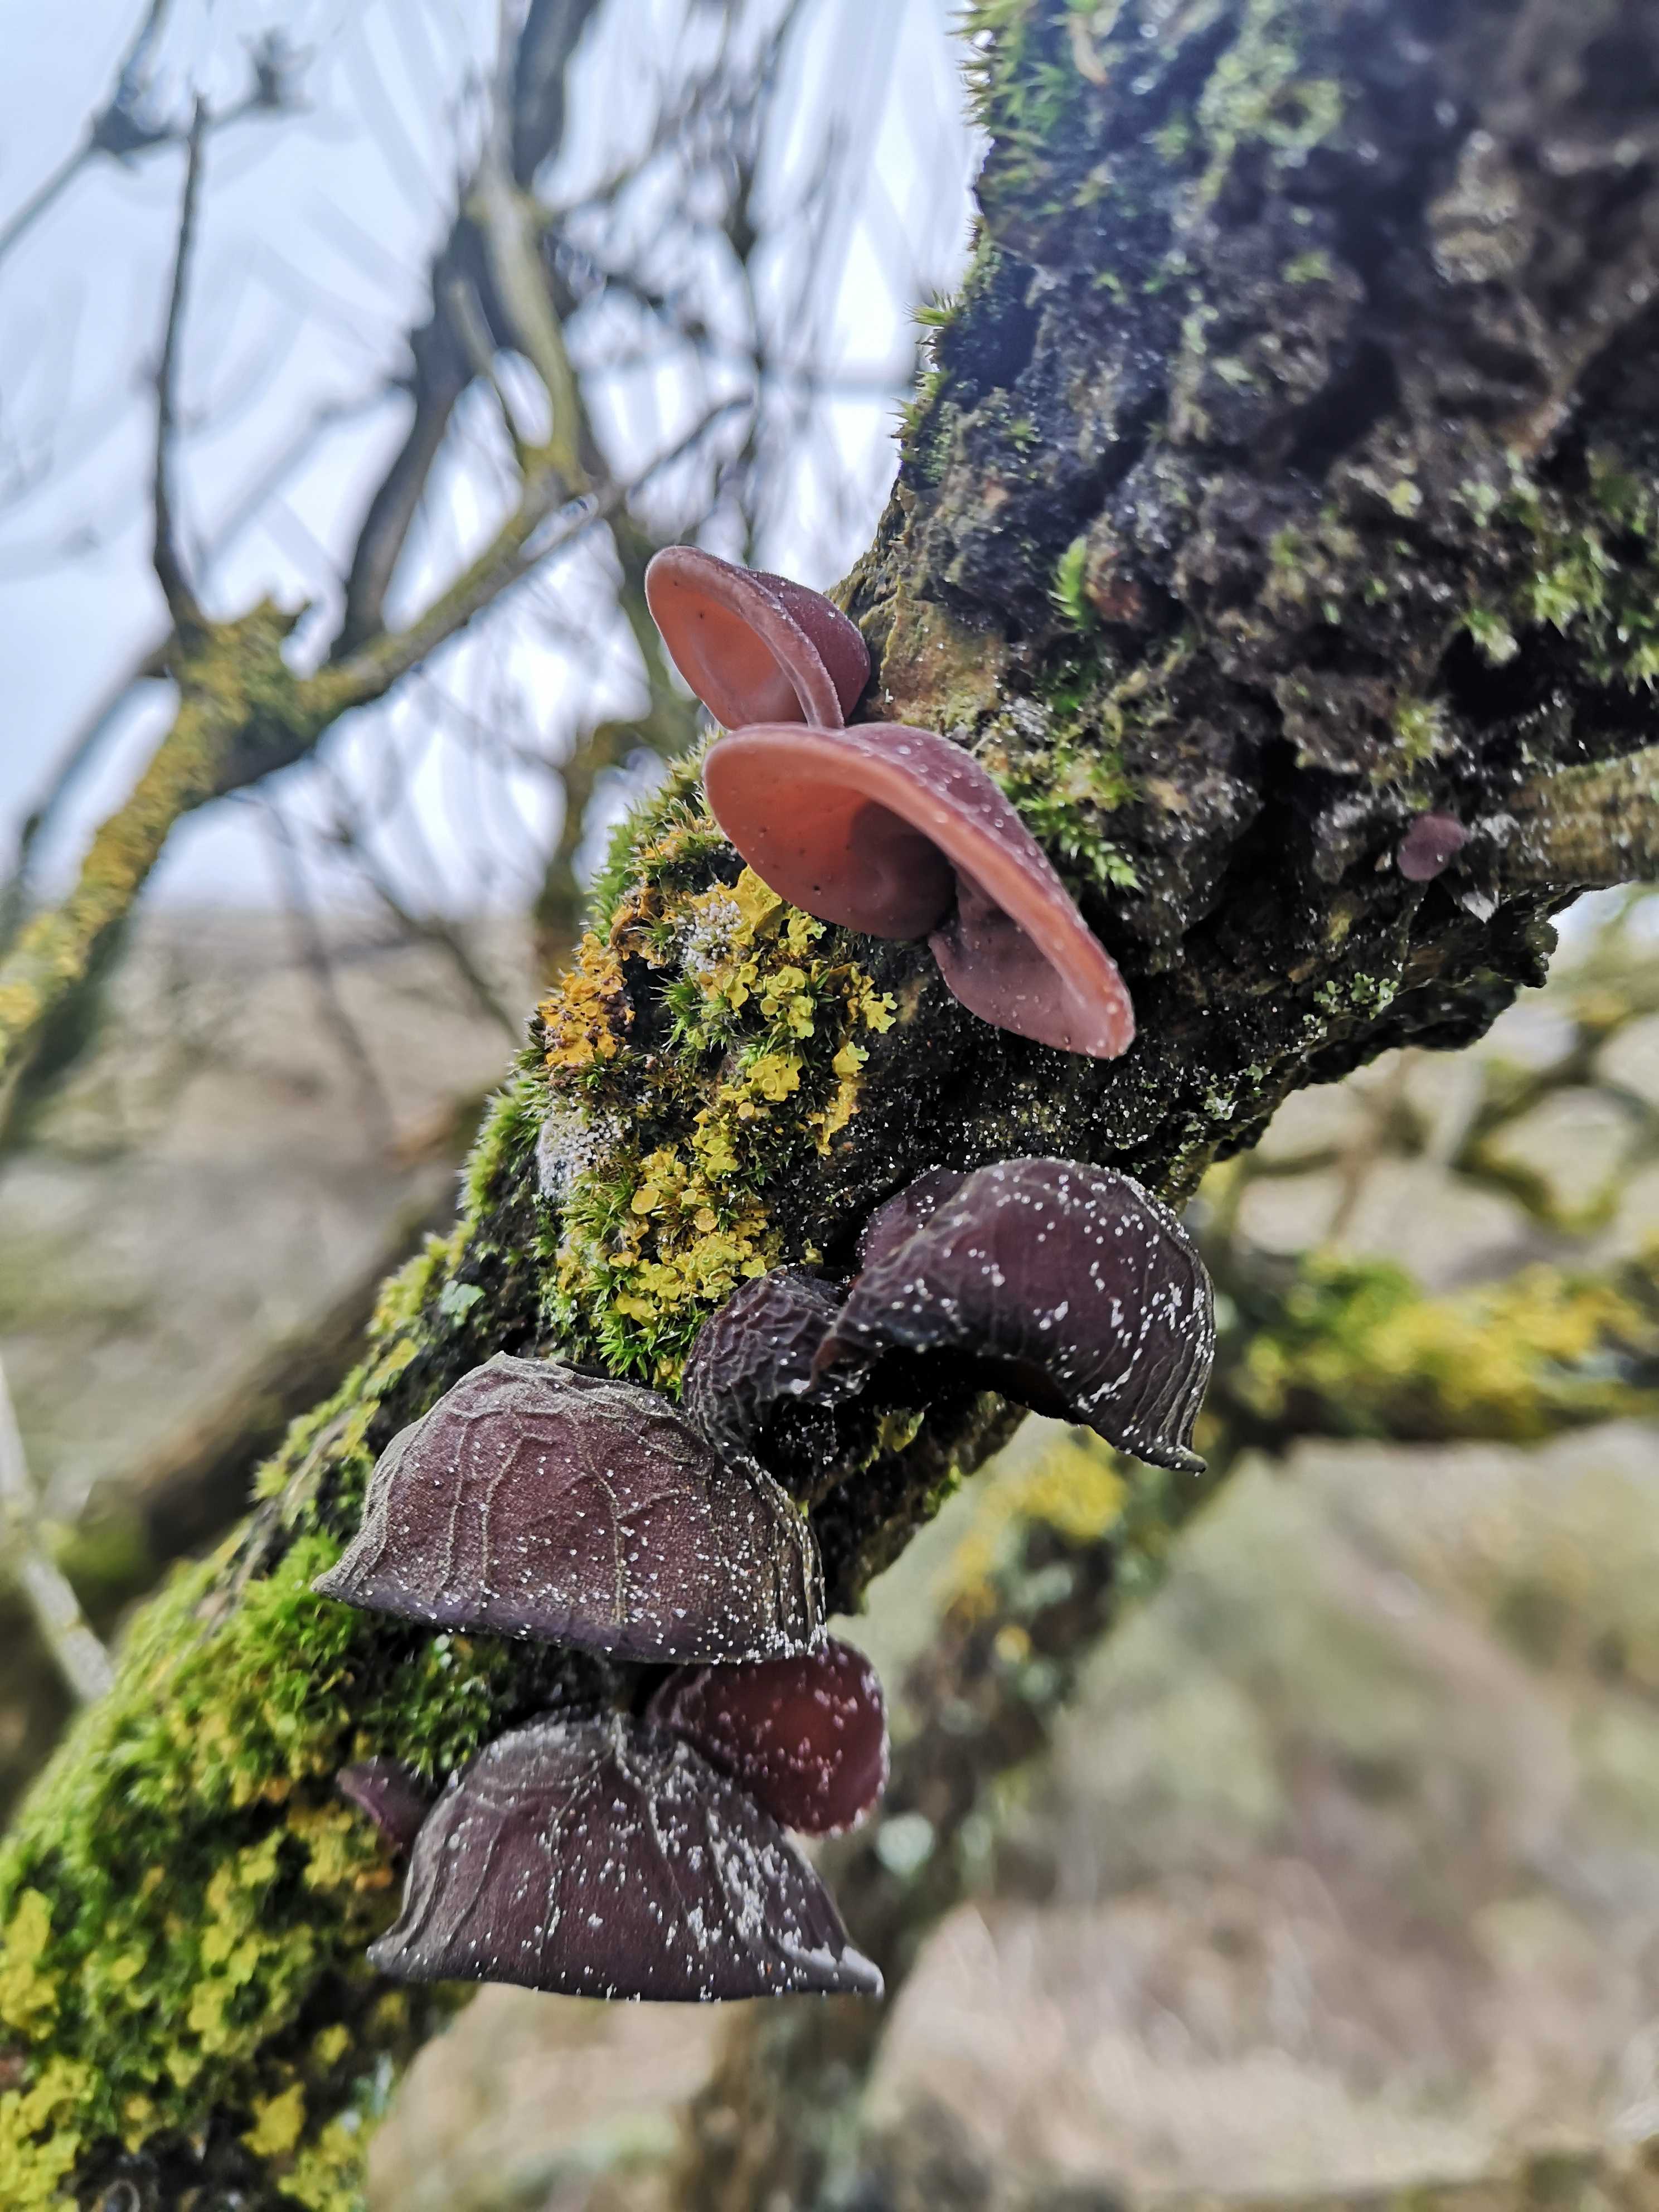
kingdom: Fungi
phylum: Basidiomycota
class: Agaricomycetes
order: Auriculariales
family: Auriculariaceae
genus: Auricularia
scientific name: Auricularia auricula-judae
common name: almindelig judasøre
